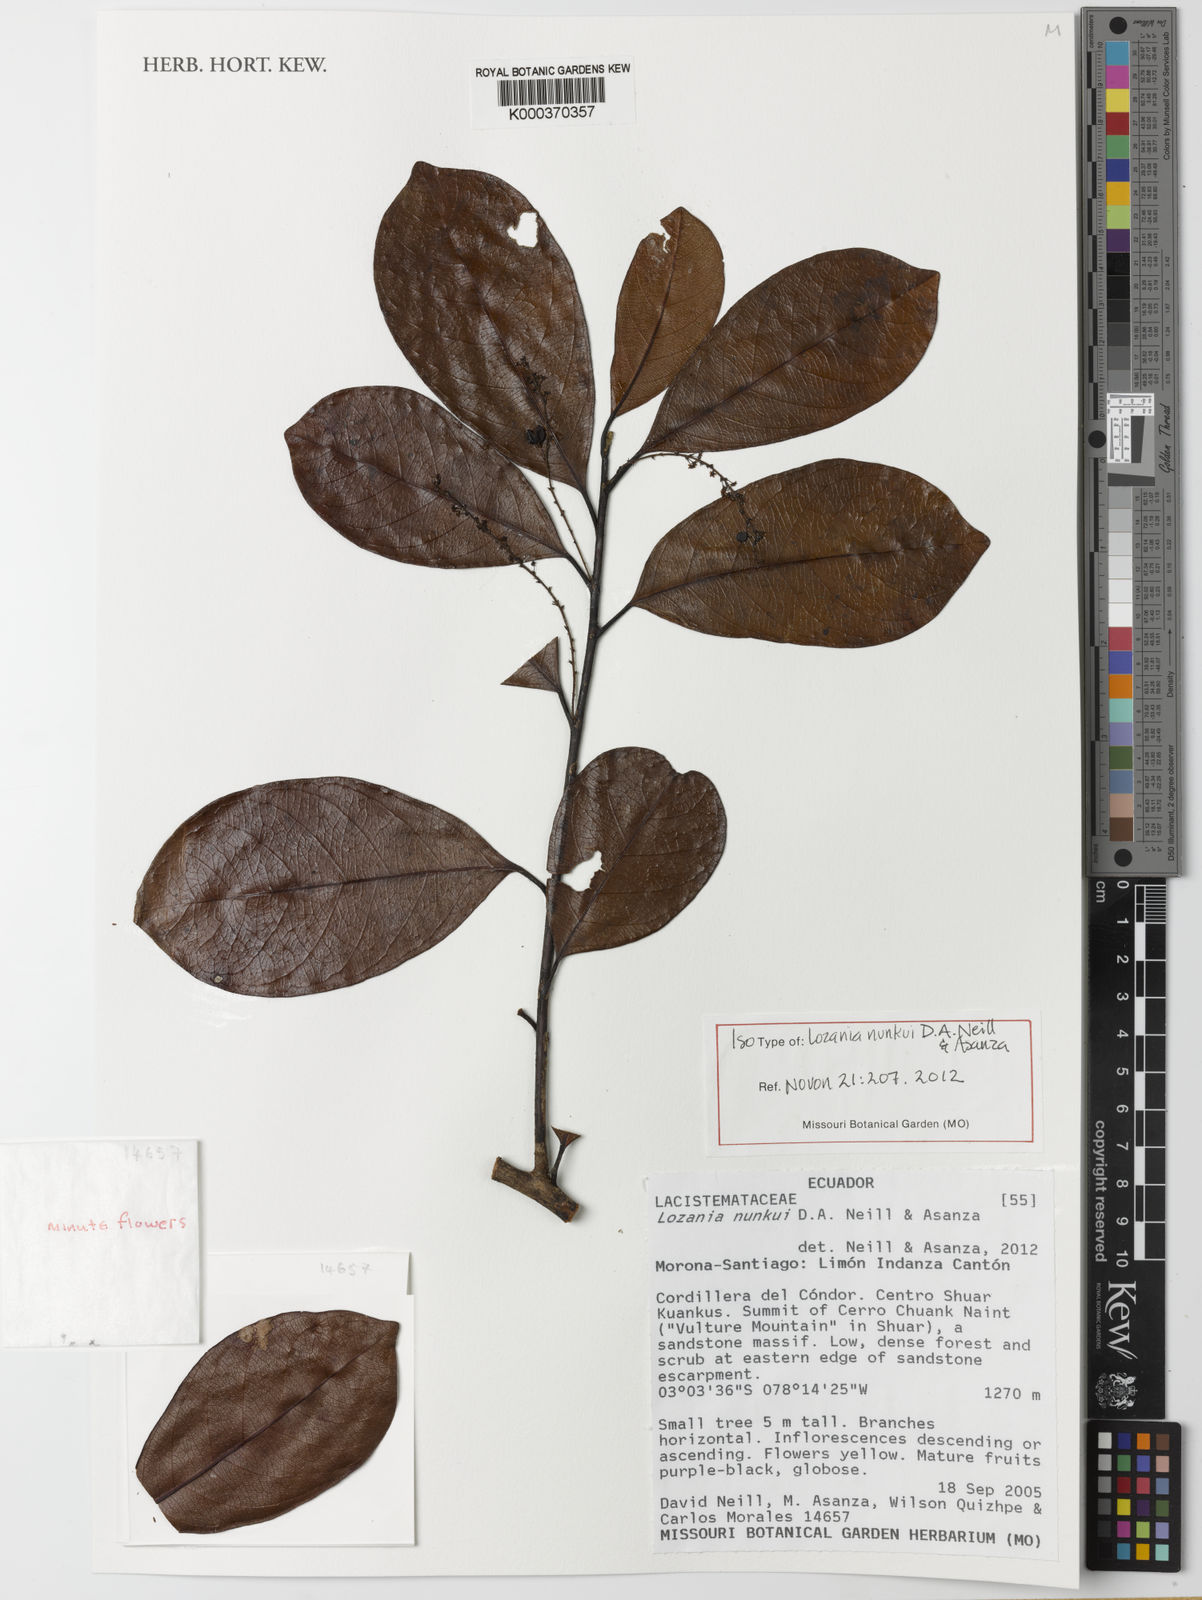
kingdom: Plantae
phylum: Tracheophyta
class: Magnoliopsida
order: Malpighiales
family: Lacistemataceae
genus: Lozania
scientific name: Lozania nunkui
